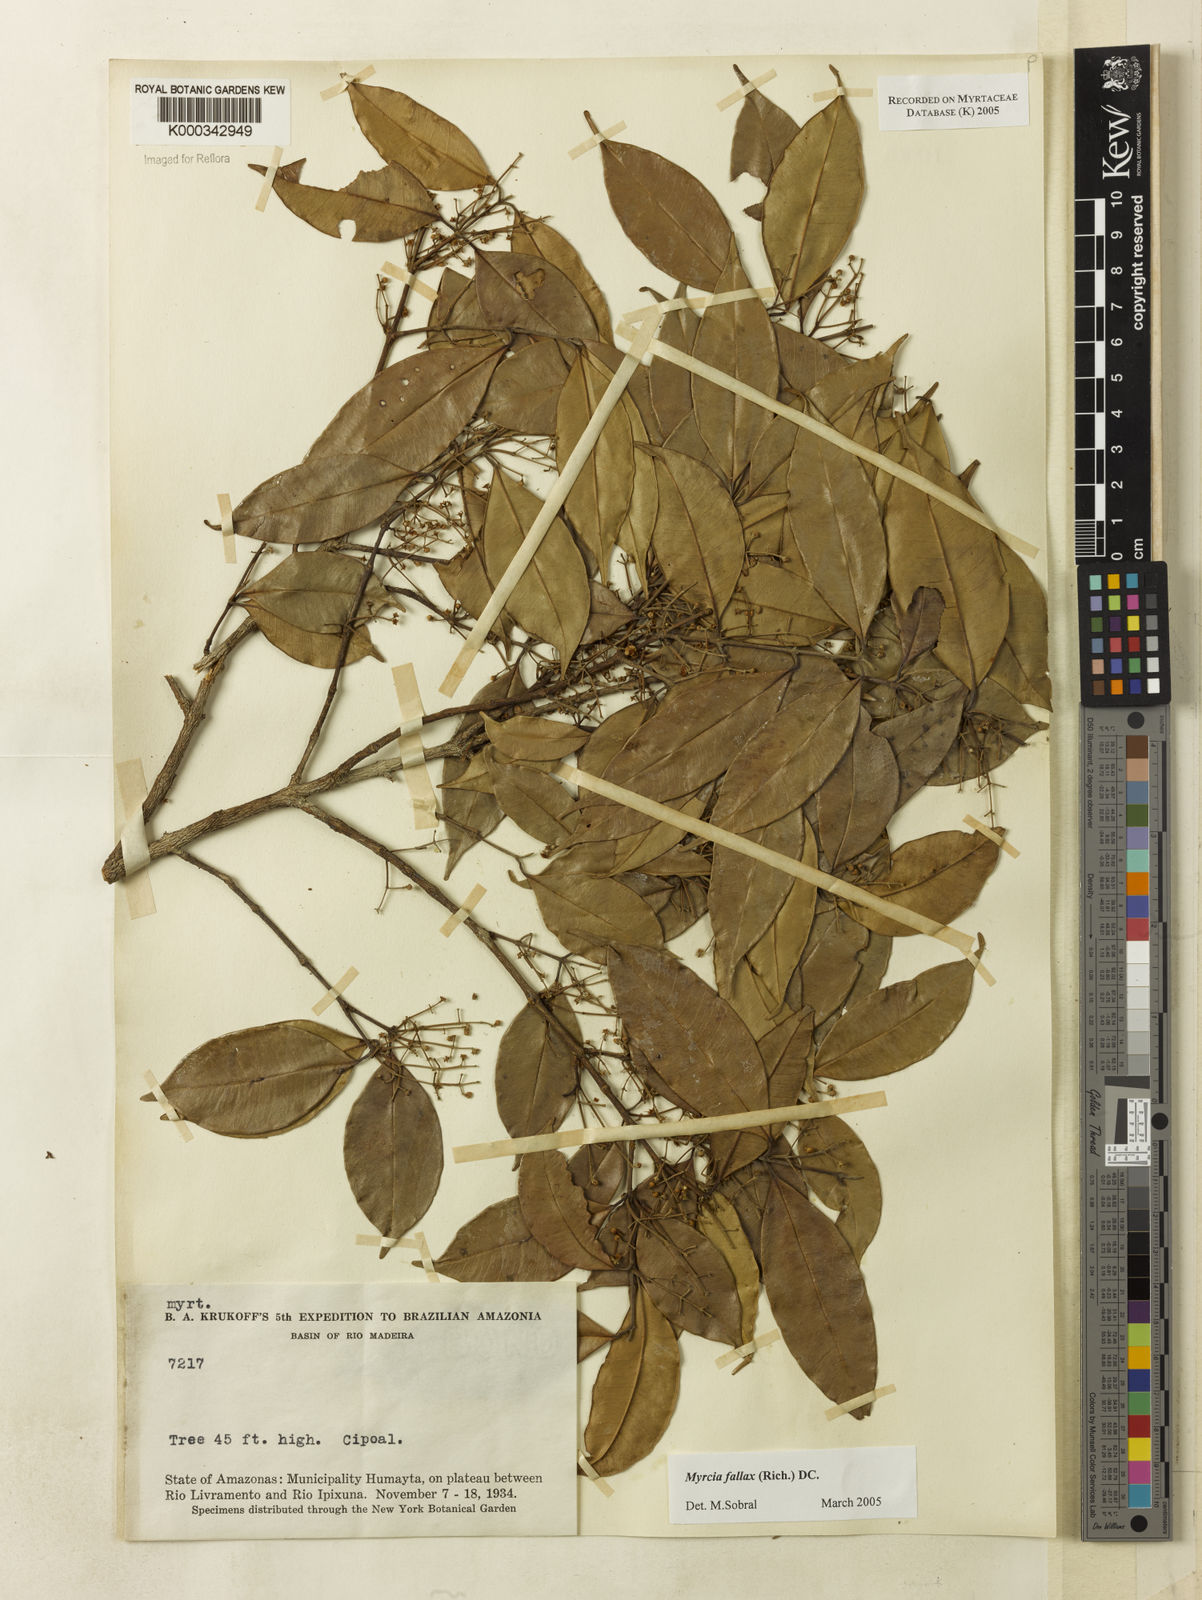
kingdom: Plantae
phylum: Tracheophyta
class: Magnoliopsida
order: Myrtales
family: Myrtaceae
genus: Myrcia
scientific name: Myrcia splendens
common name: Surinam cherry
